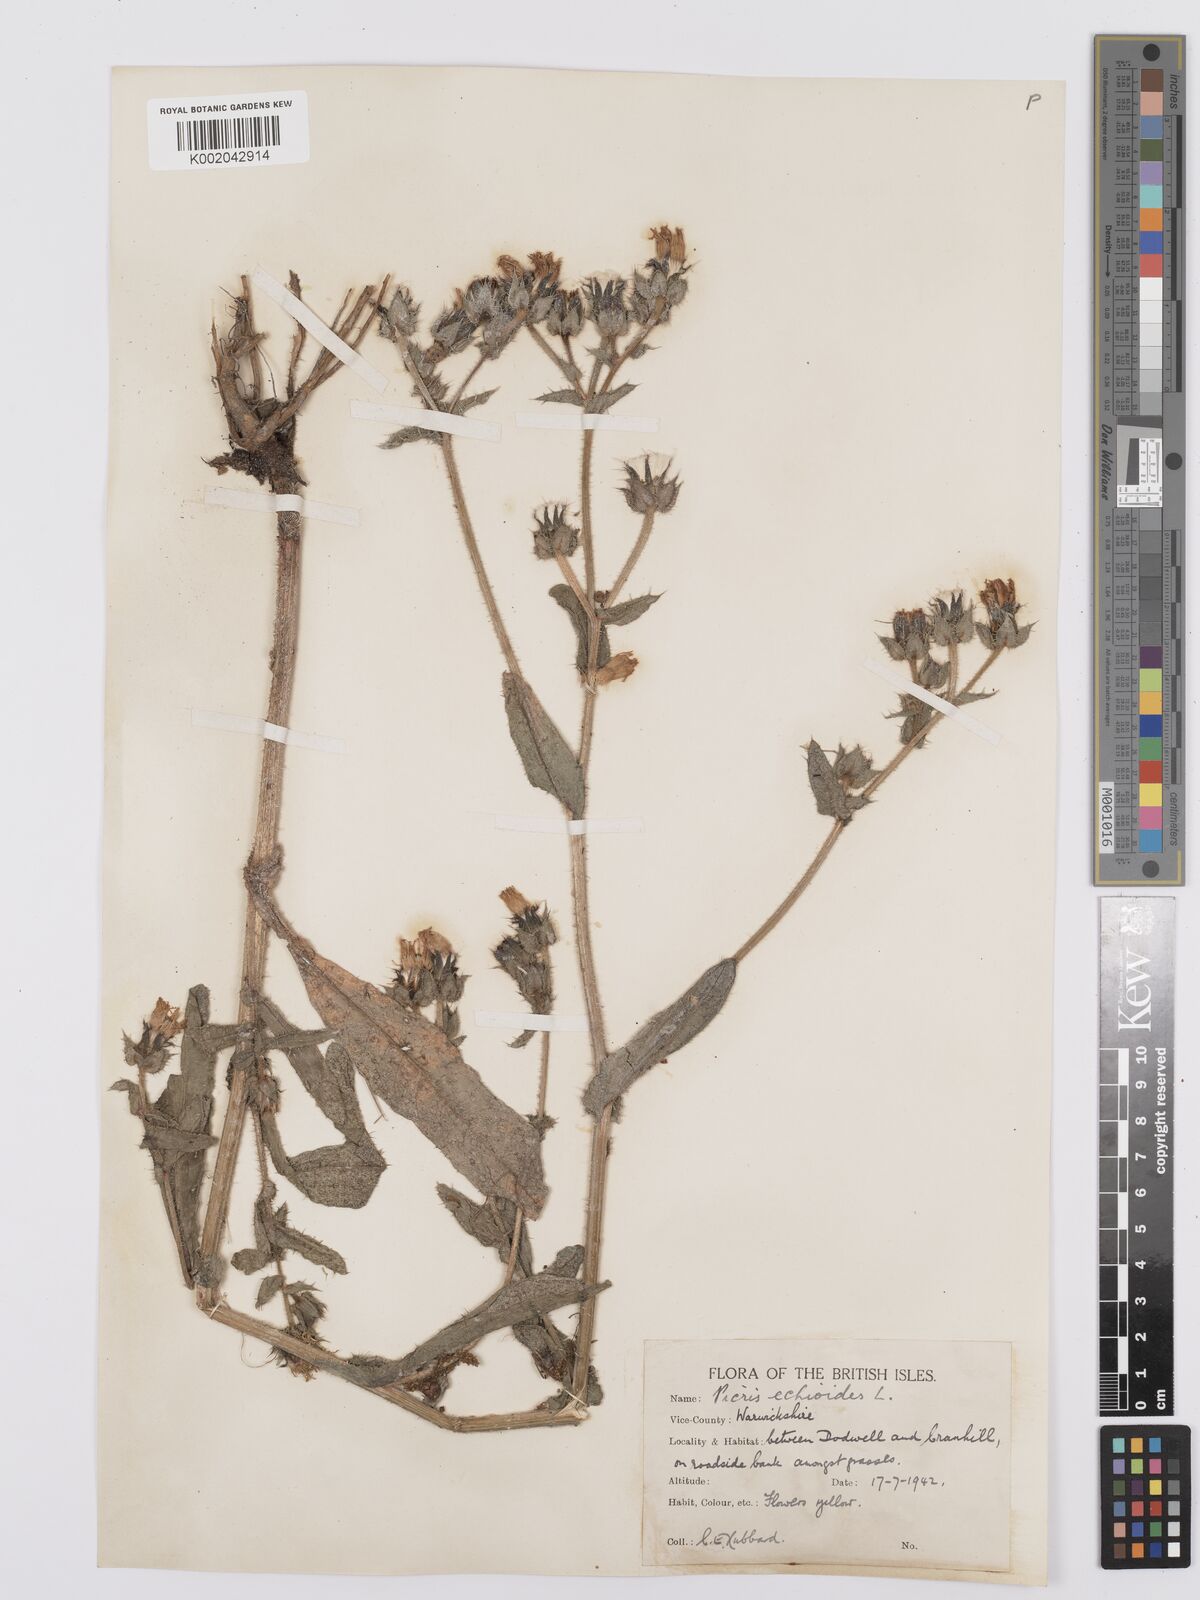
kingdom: Plantae
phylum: Tracheophyta
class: Magnoliopsida
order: Asterales
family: Asteraceae
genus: Helminthotheca
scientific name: Helminthotheca echioides
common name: Ox-tongue
